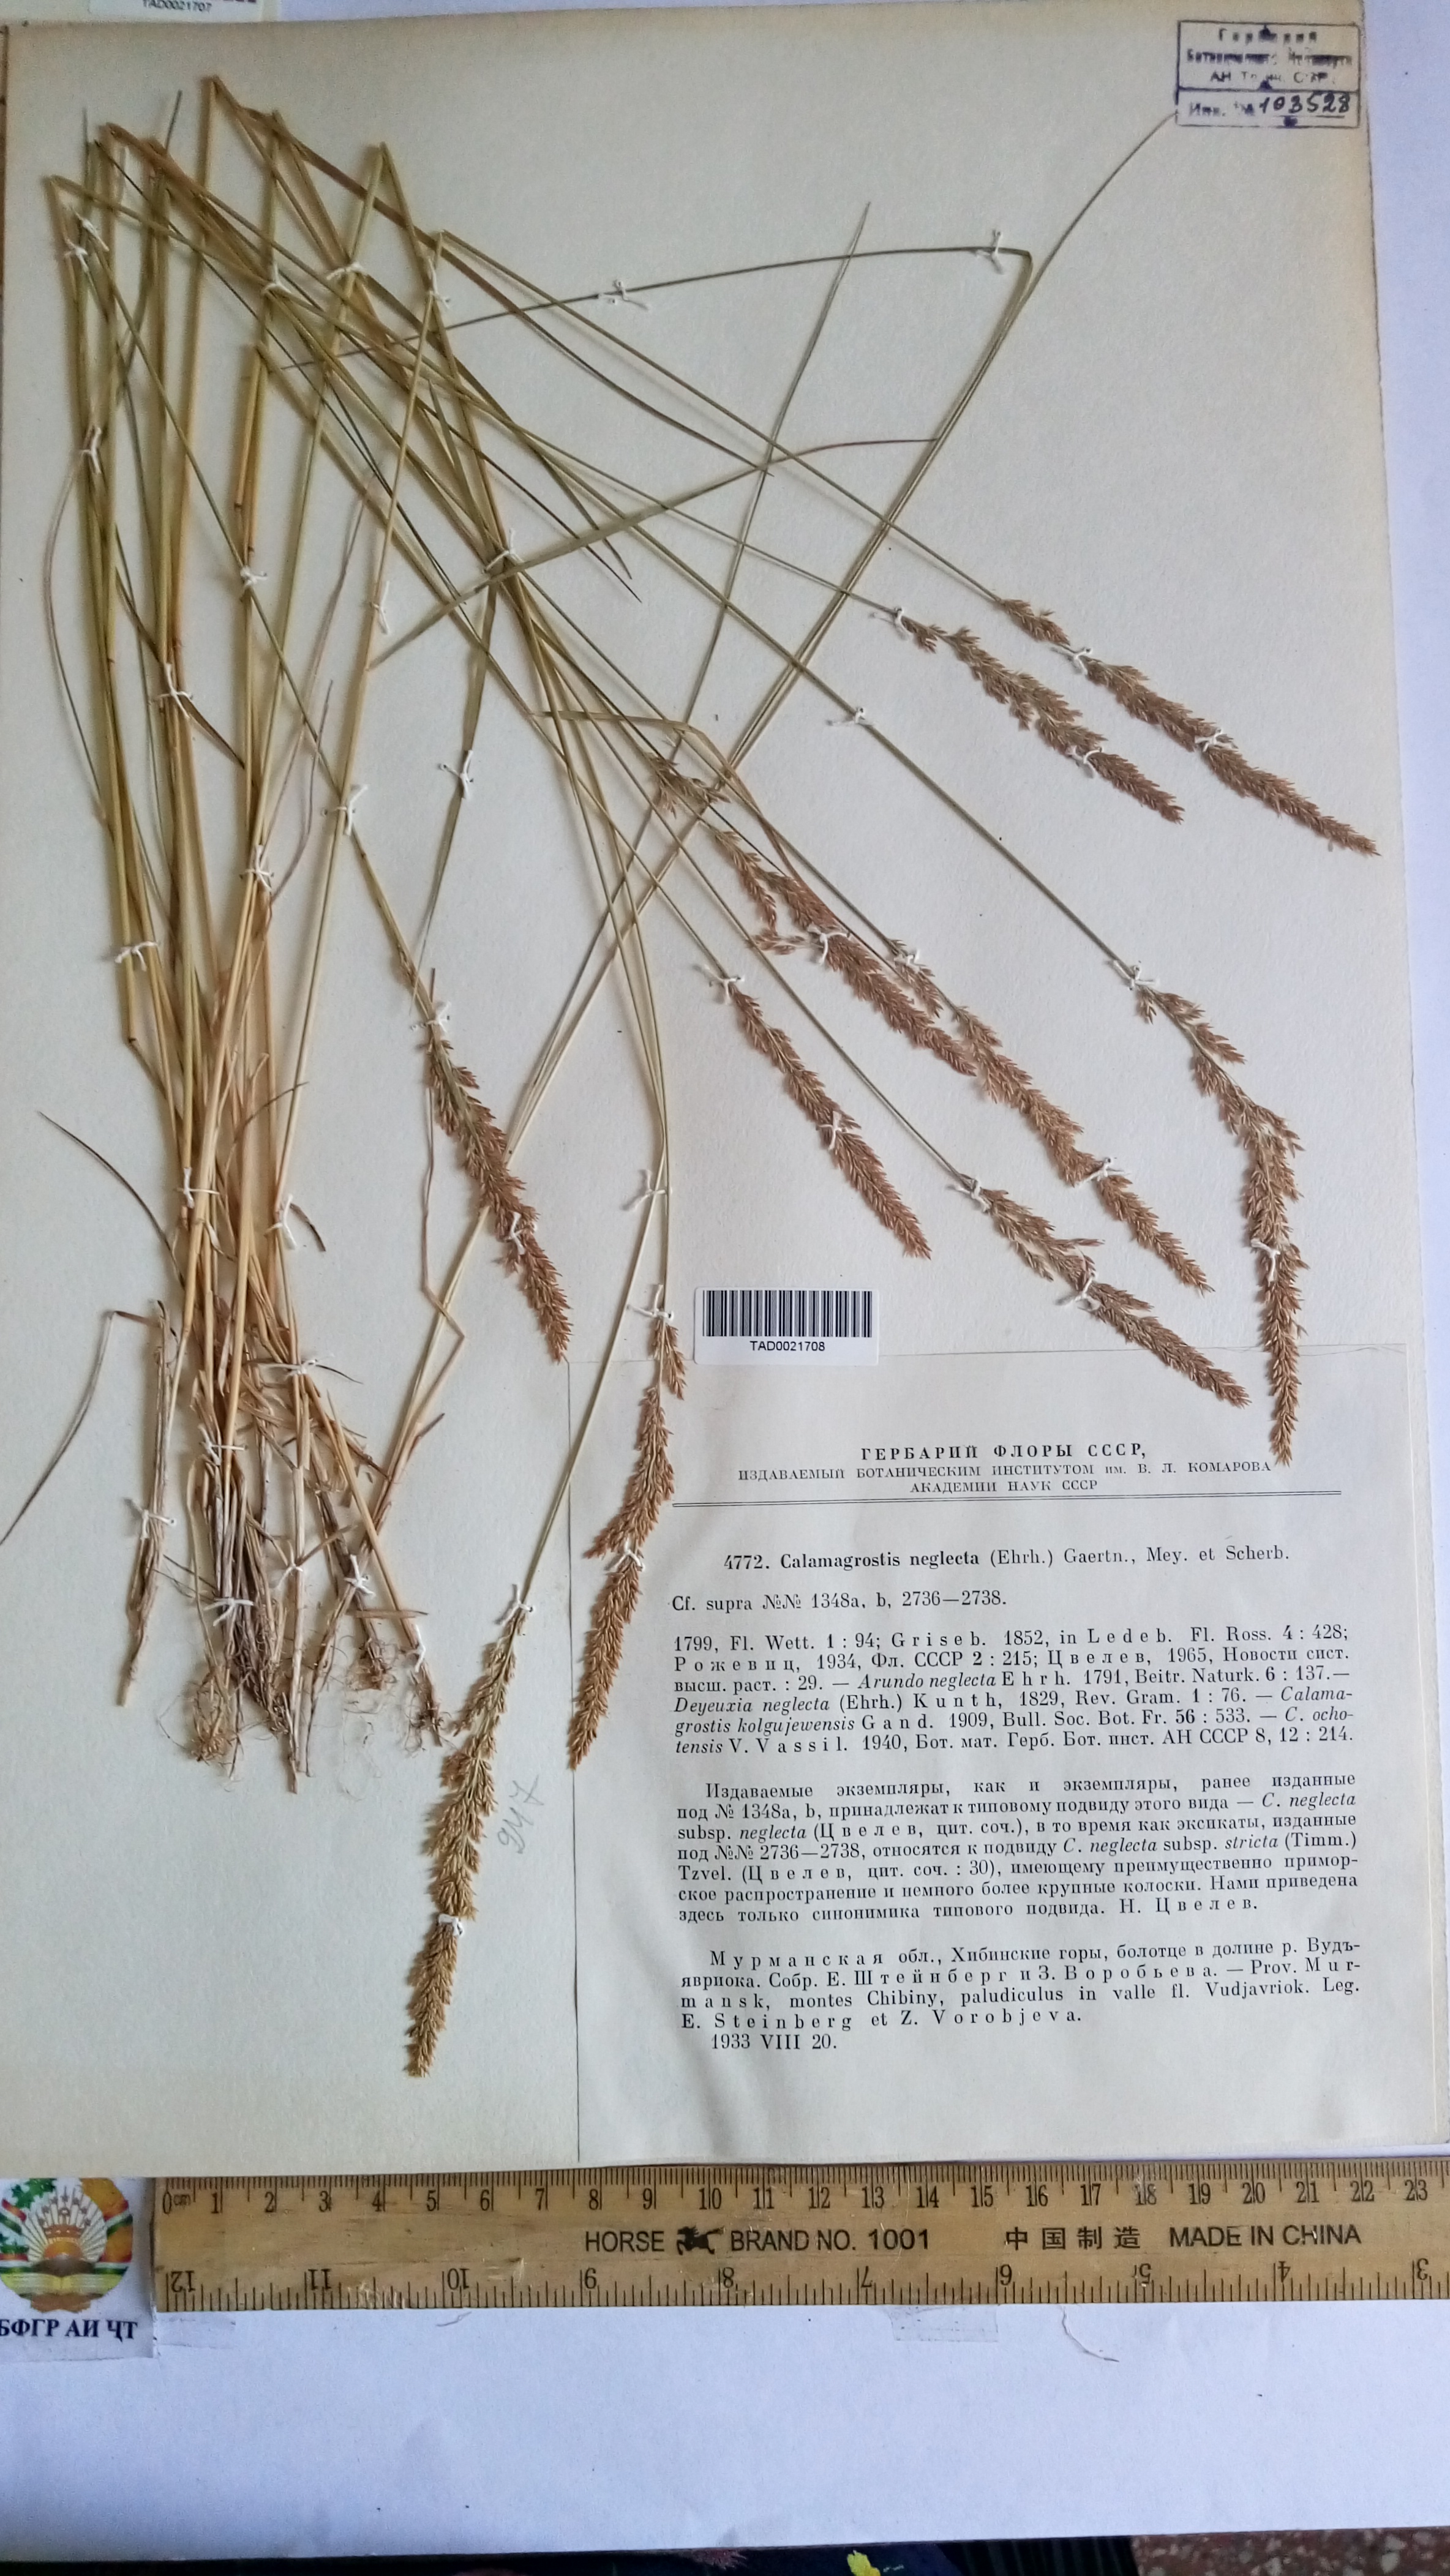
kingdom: Plantae
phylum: Tracheophyta
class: Liliopsida
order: Poales
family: Poaceae
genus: Achnatherum
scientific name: Achnatherum calamagrostis
